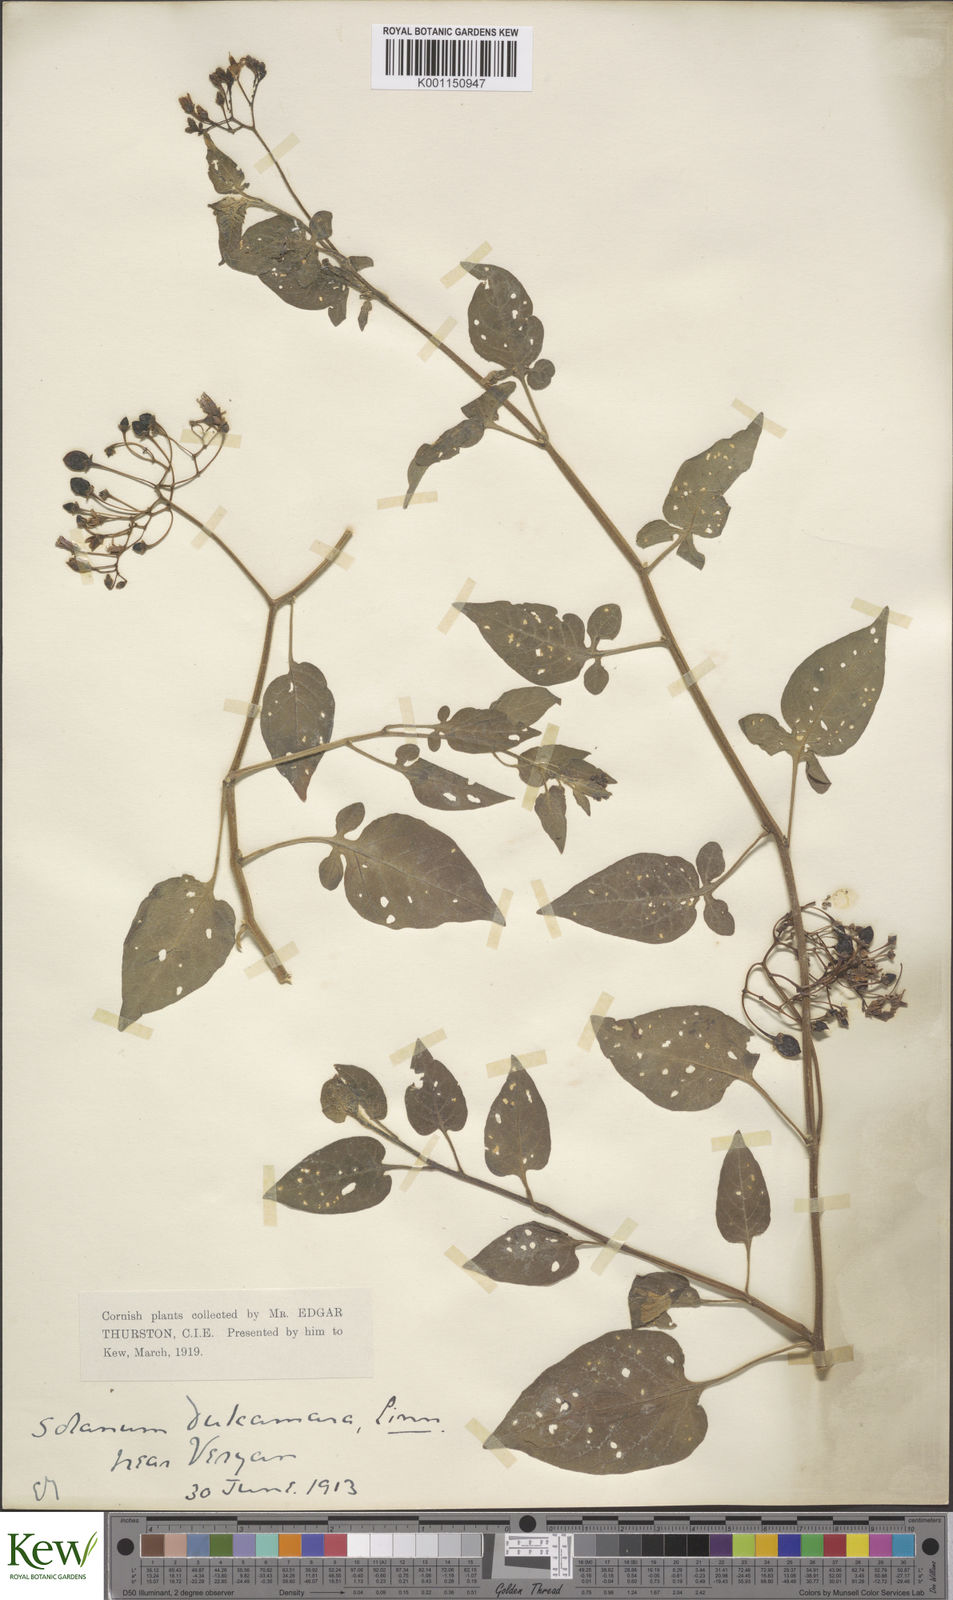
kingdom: Plantae
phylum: Tracheophyta
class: Magnoliopsida
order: Solanales
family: Solanaceae
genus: Solanum
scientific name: Solanum dulcamara
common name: Climbing nightshade
